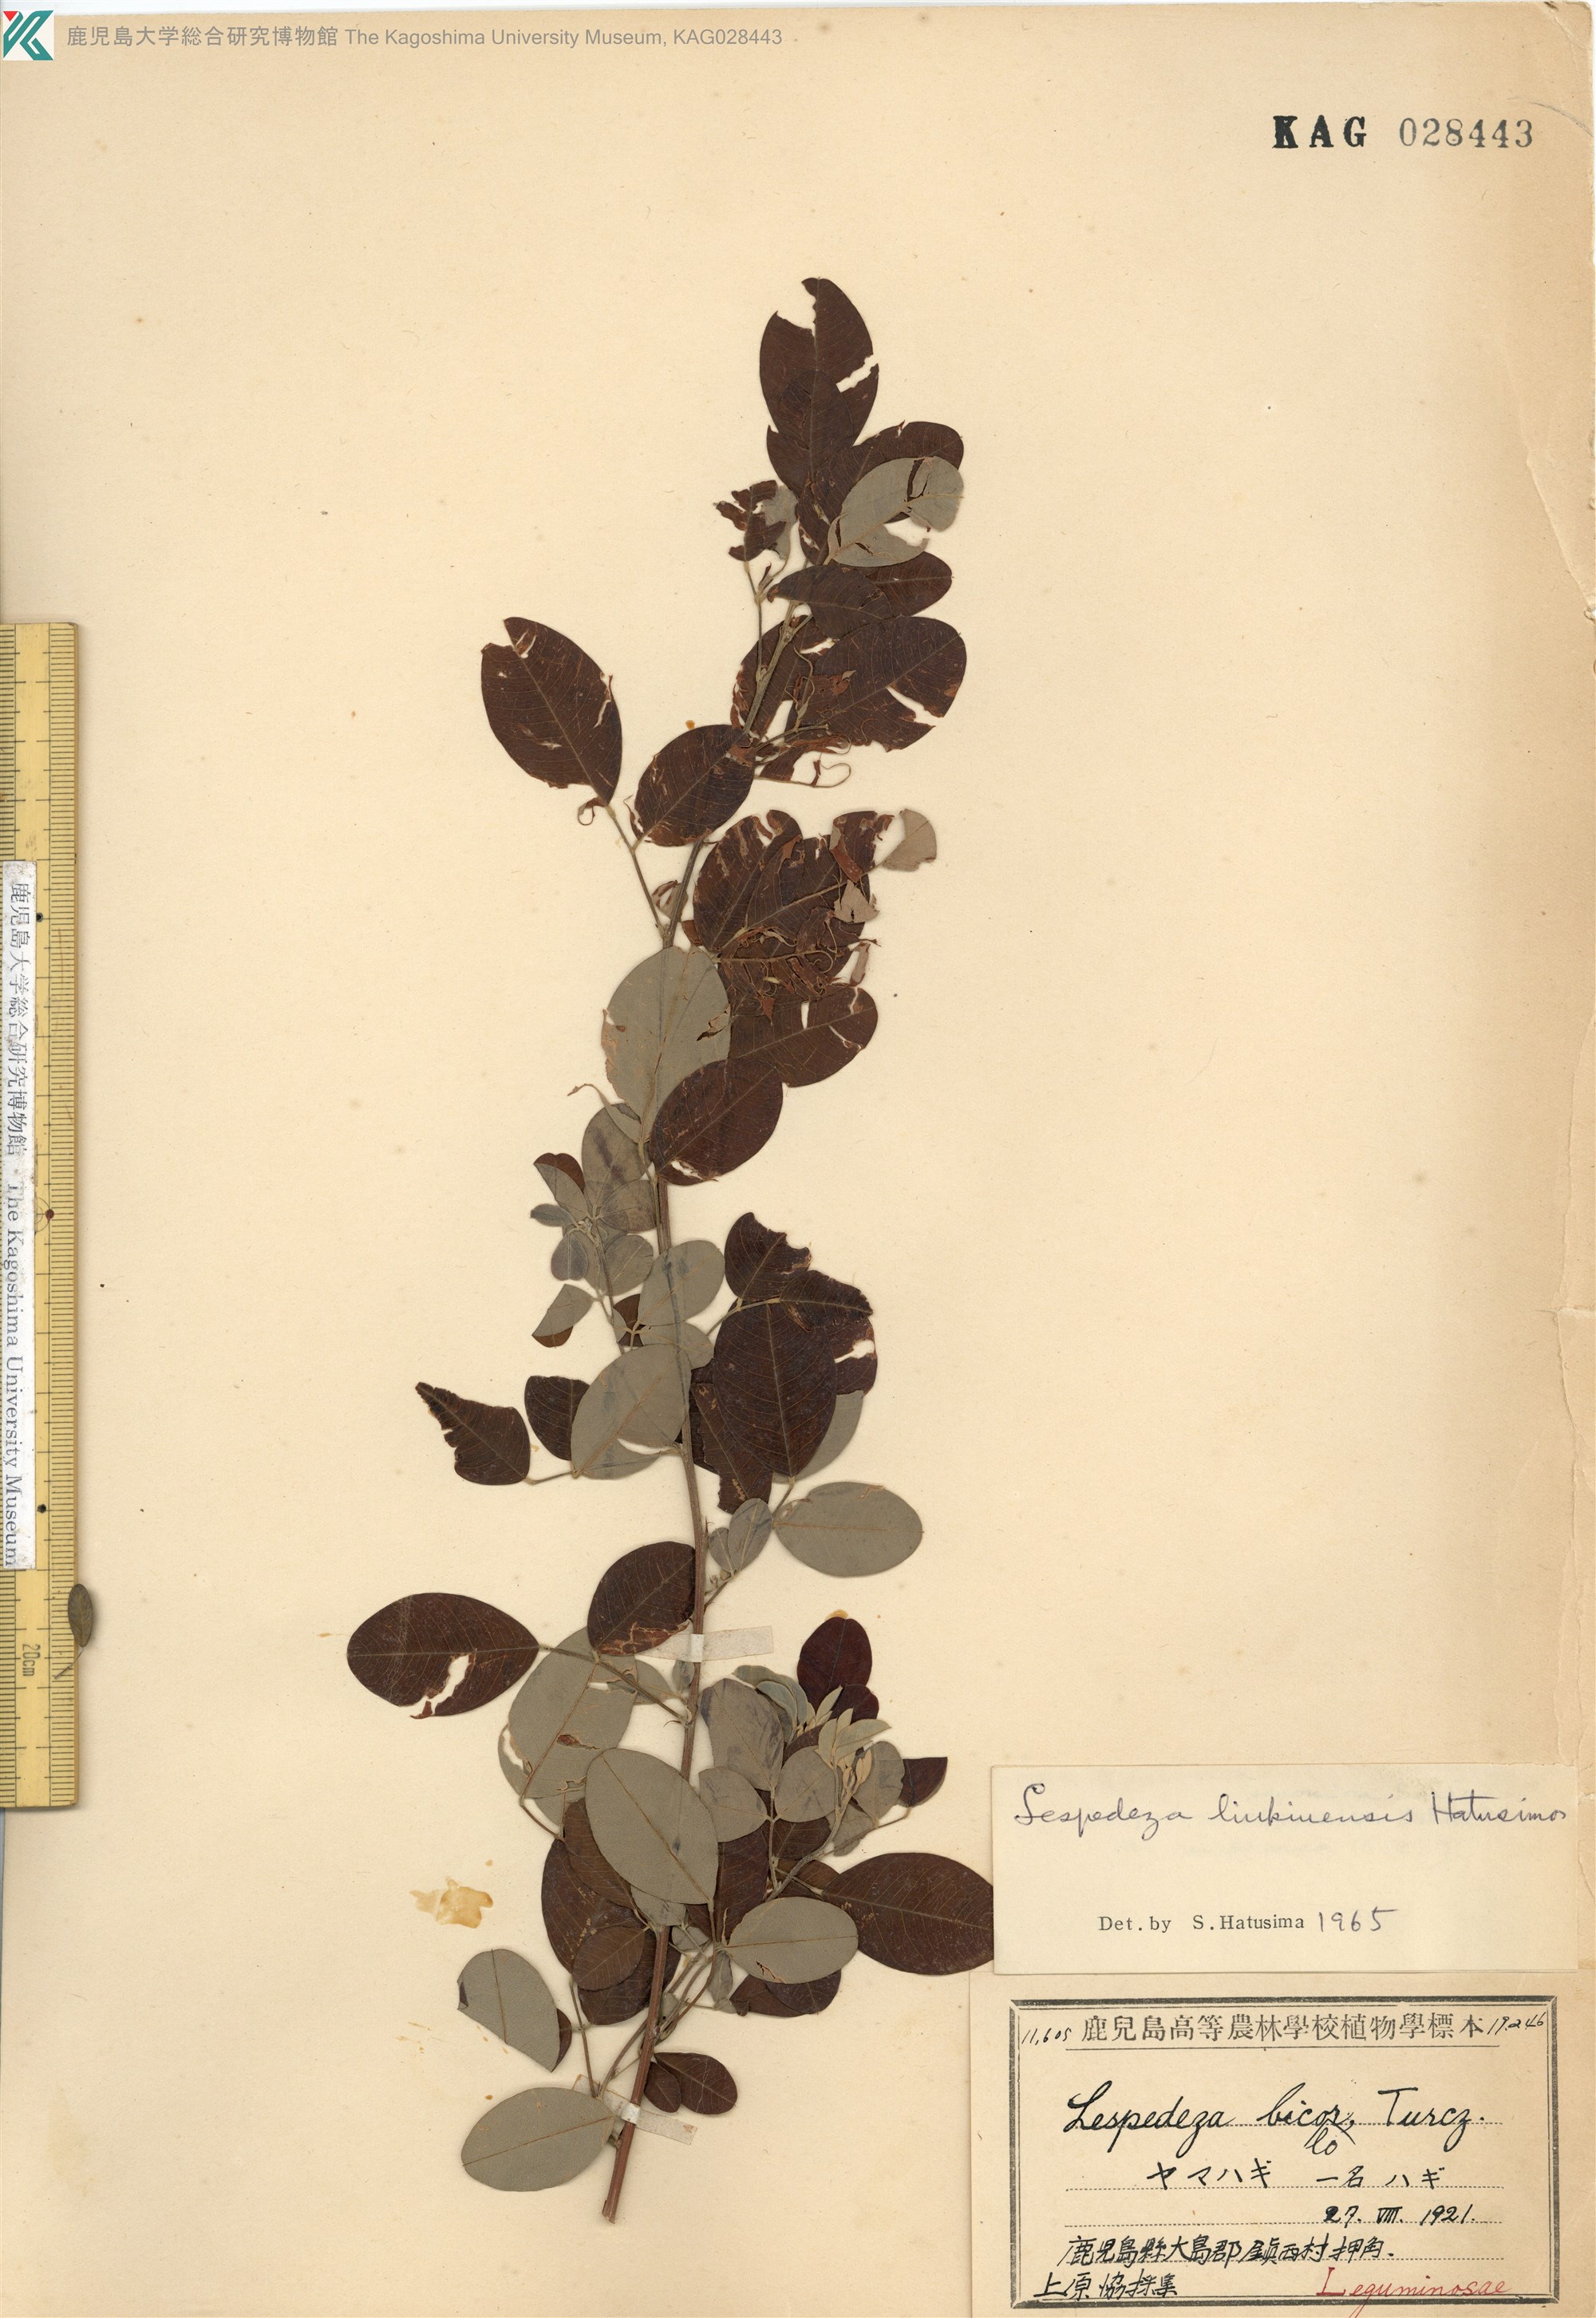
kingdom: Plantae
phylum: Tracheophyta
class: Magnoliopsida
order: Fabales
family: Fabaceae
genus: Lespedeza
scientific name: Lespedeza thunbergii
